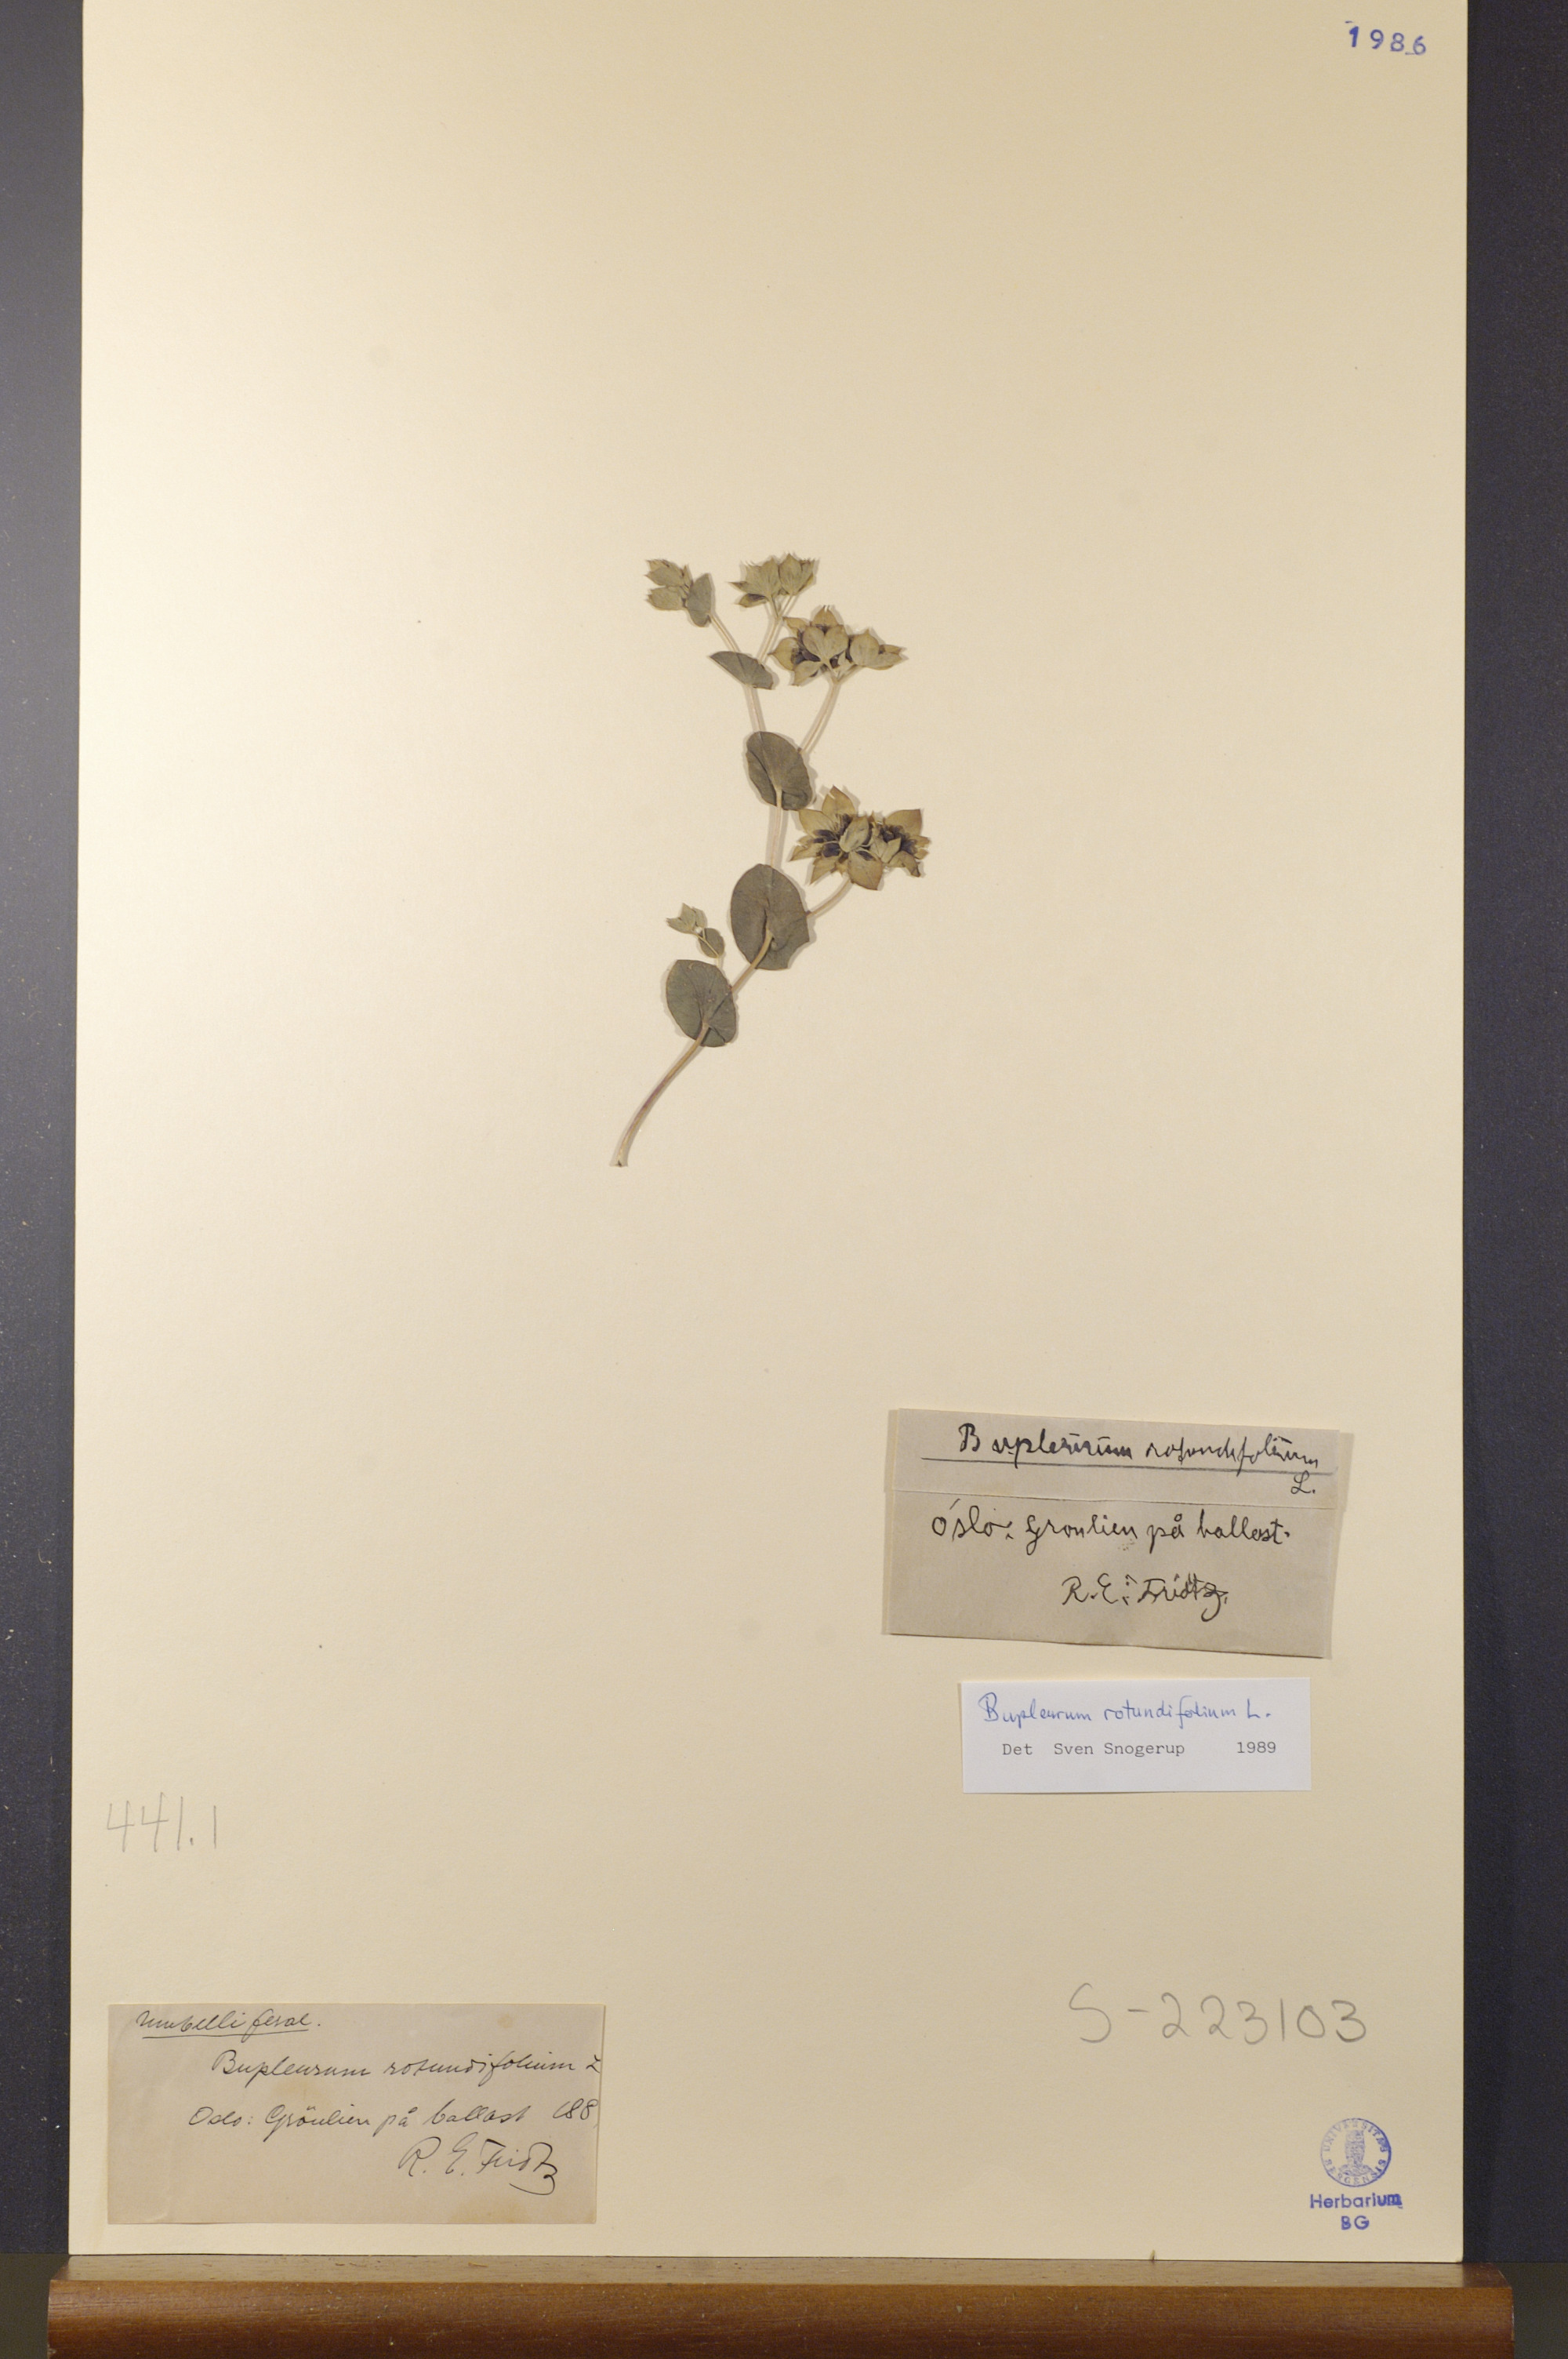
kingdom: Plantae
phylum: Tracheophyta
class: Magnoliopsida
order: Apiales
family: Apiaceae
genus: Bupleurum
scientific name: Bupleurum rotundifolium
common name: Thorow-wax
